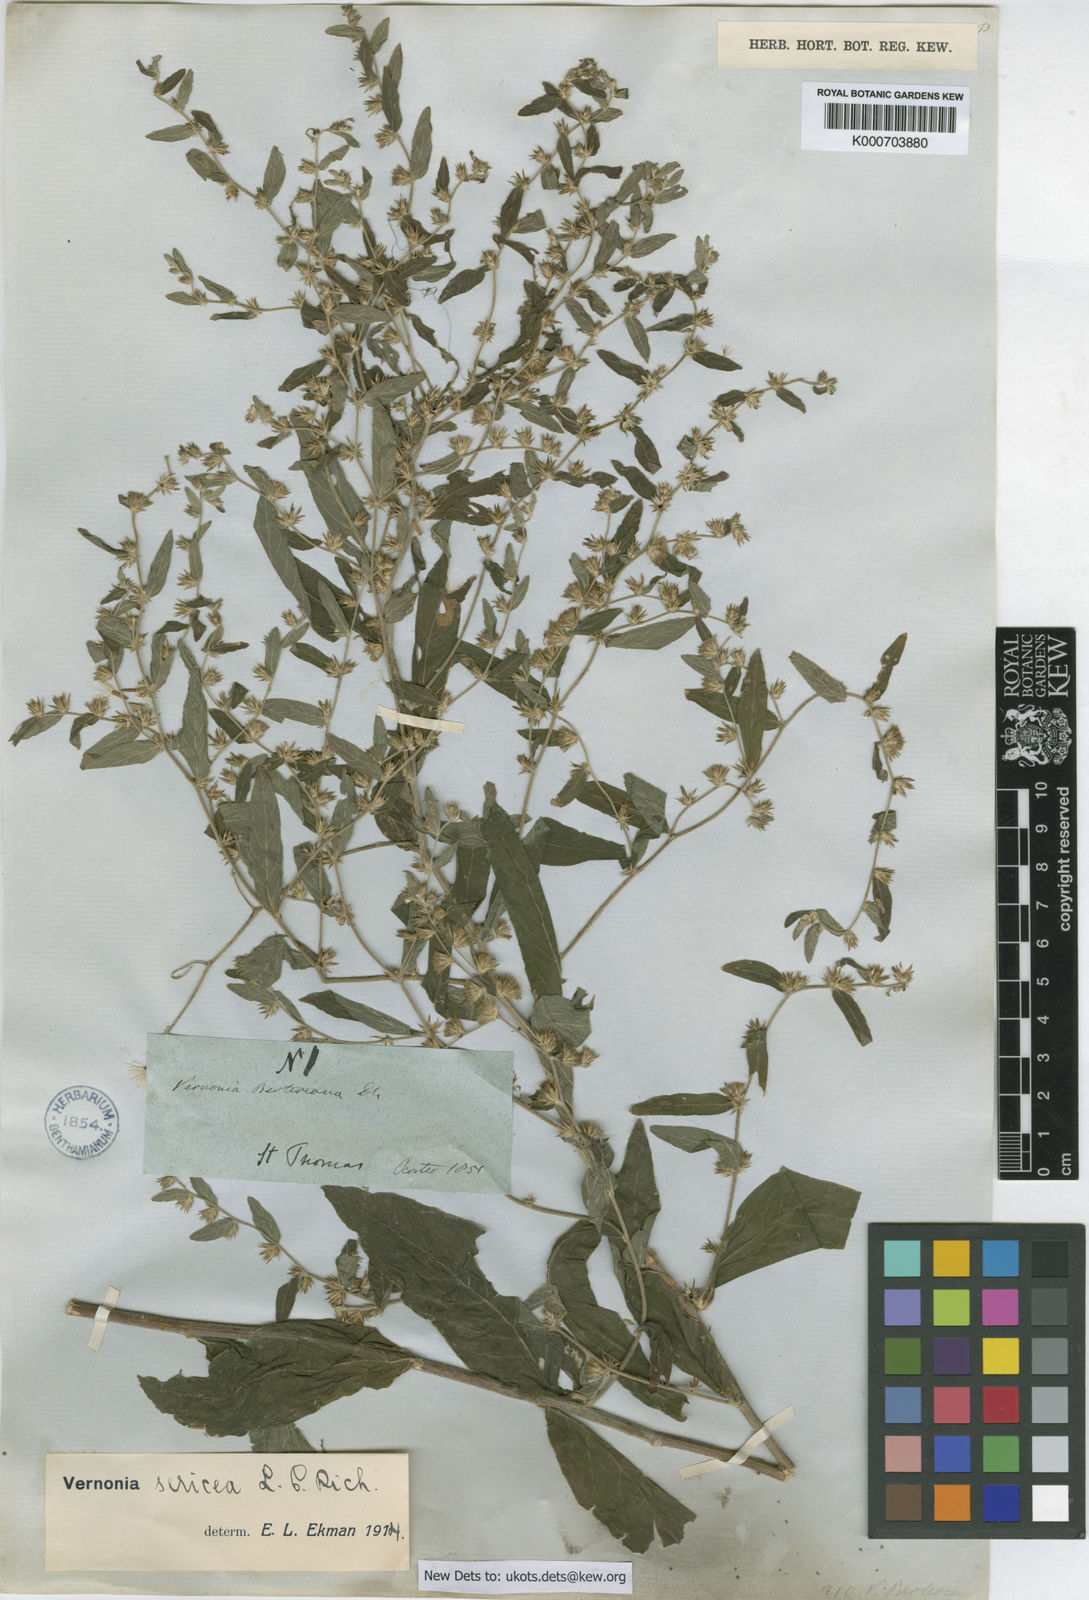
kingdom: Plantae
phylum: Tracheophyta
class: Magnoliopsida
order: Asterales
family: Asteraceae
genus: Lepidaploa
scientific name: Lepidaploa sericea
